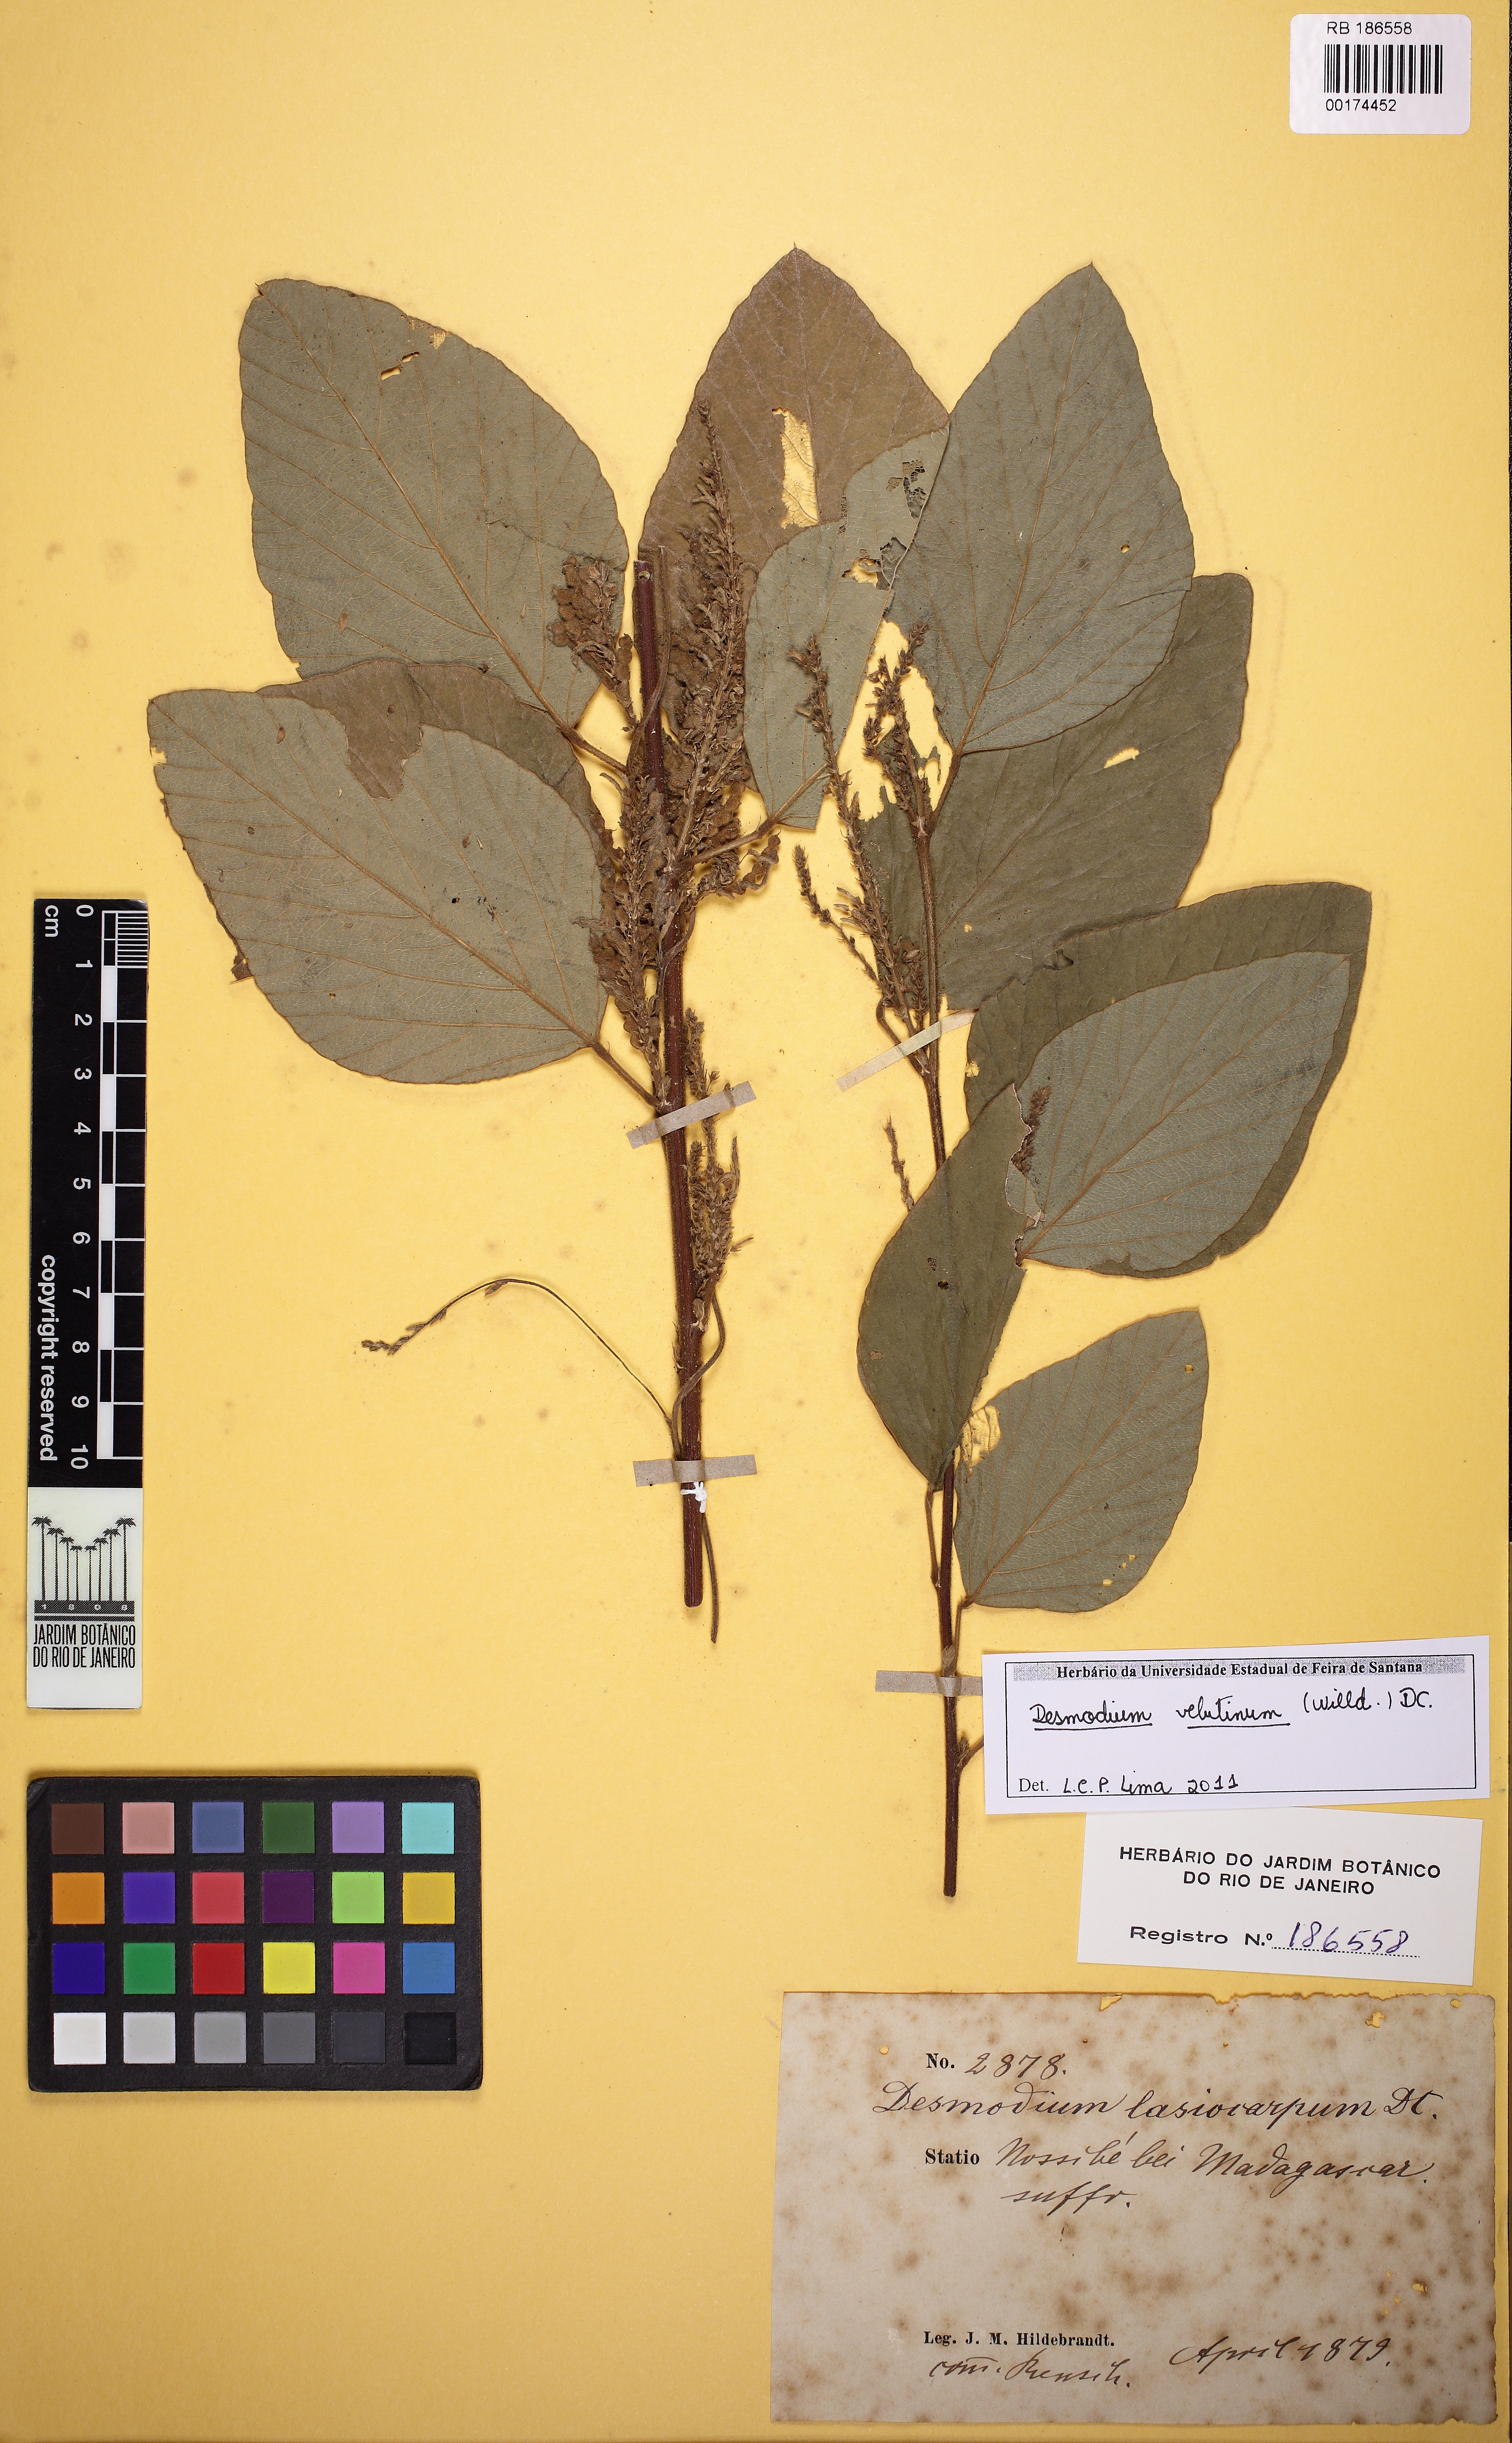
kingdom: Plantae
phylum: Tracheophyta
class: Magnoliopsida
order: Fabales
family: Fabaceae
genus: Polhillides
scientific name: Polhillides velutina
